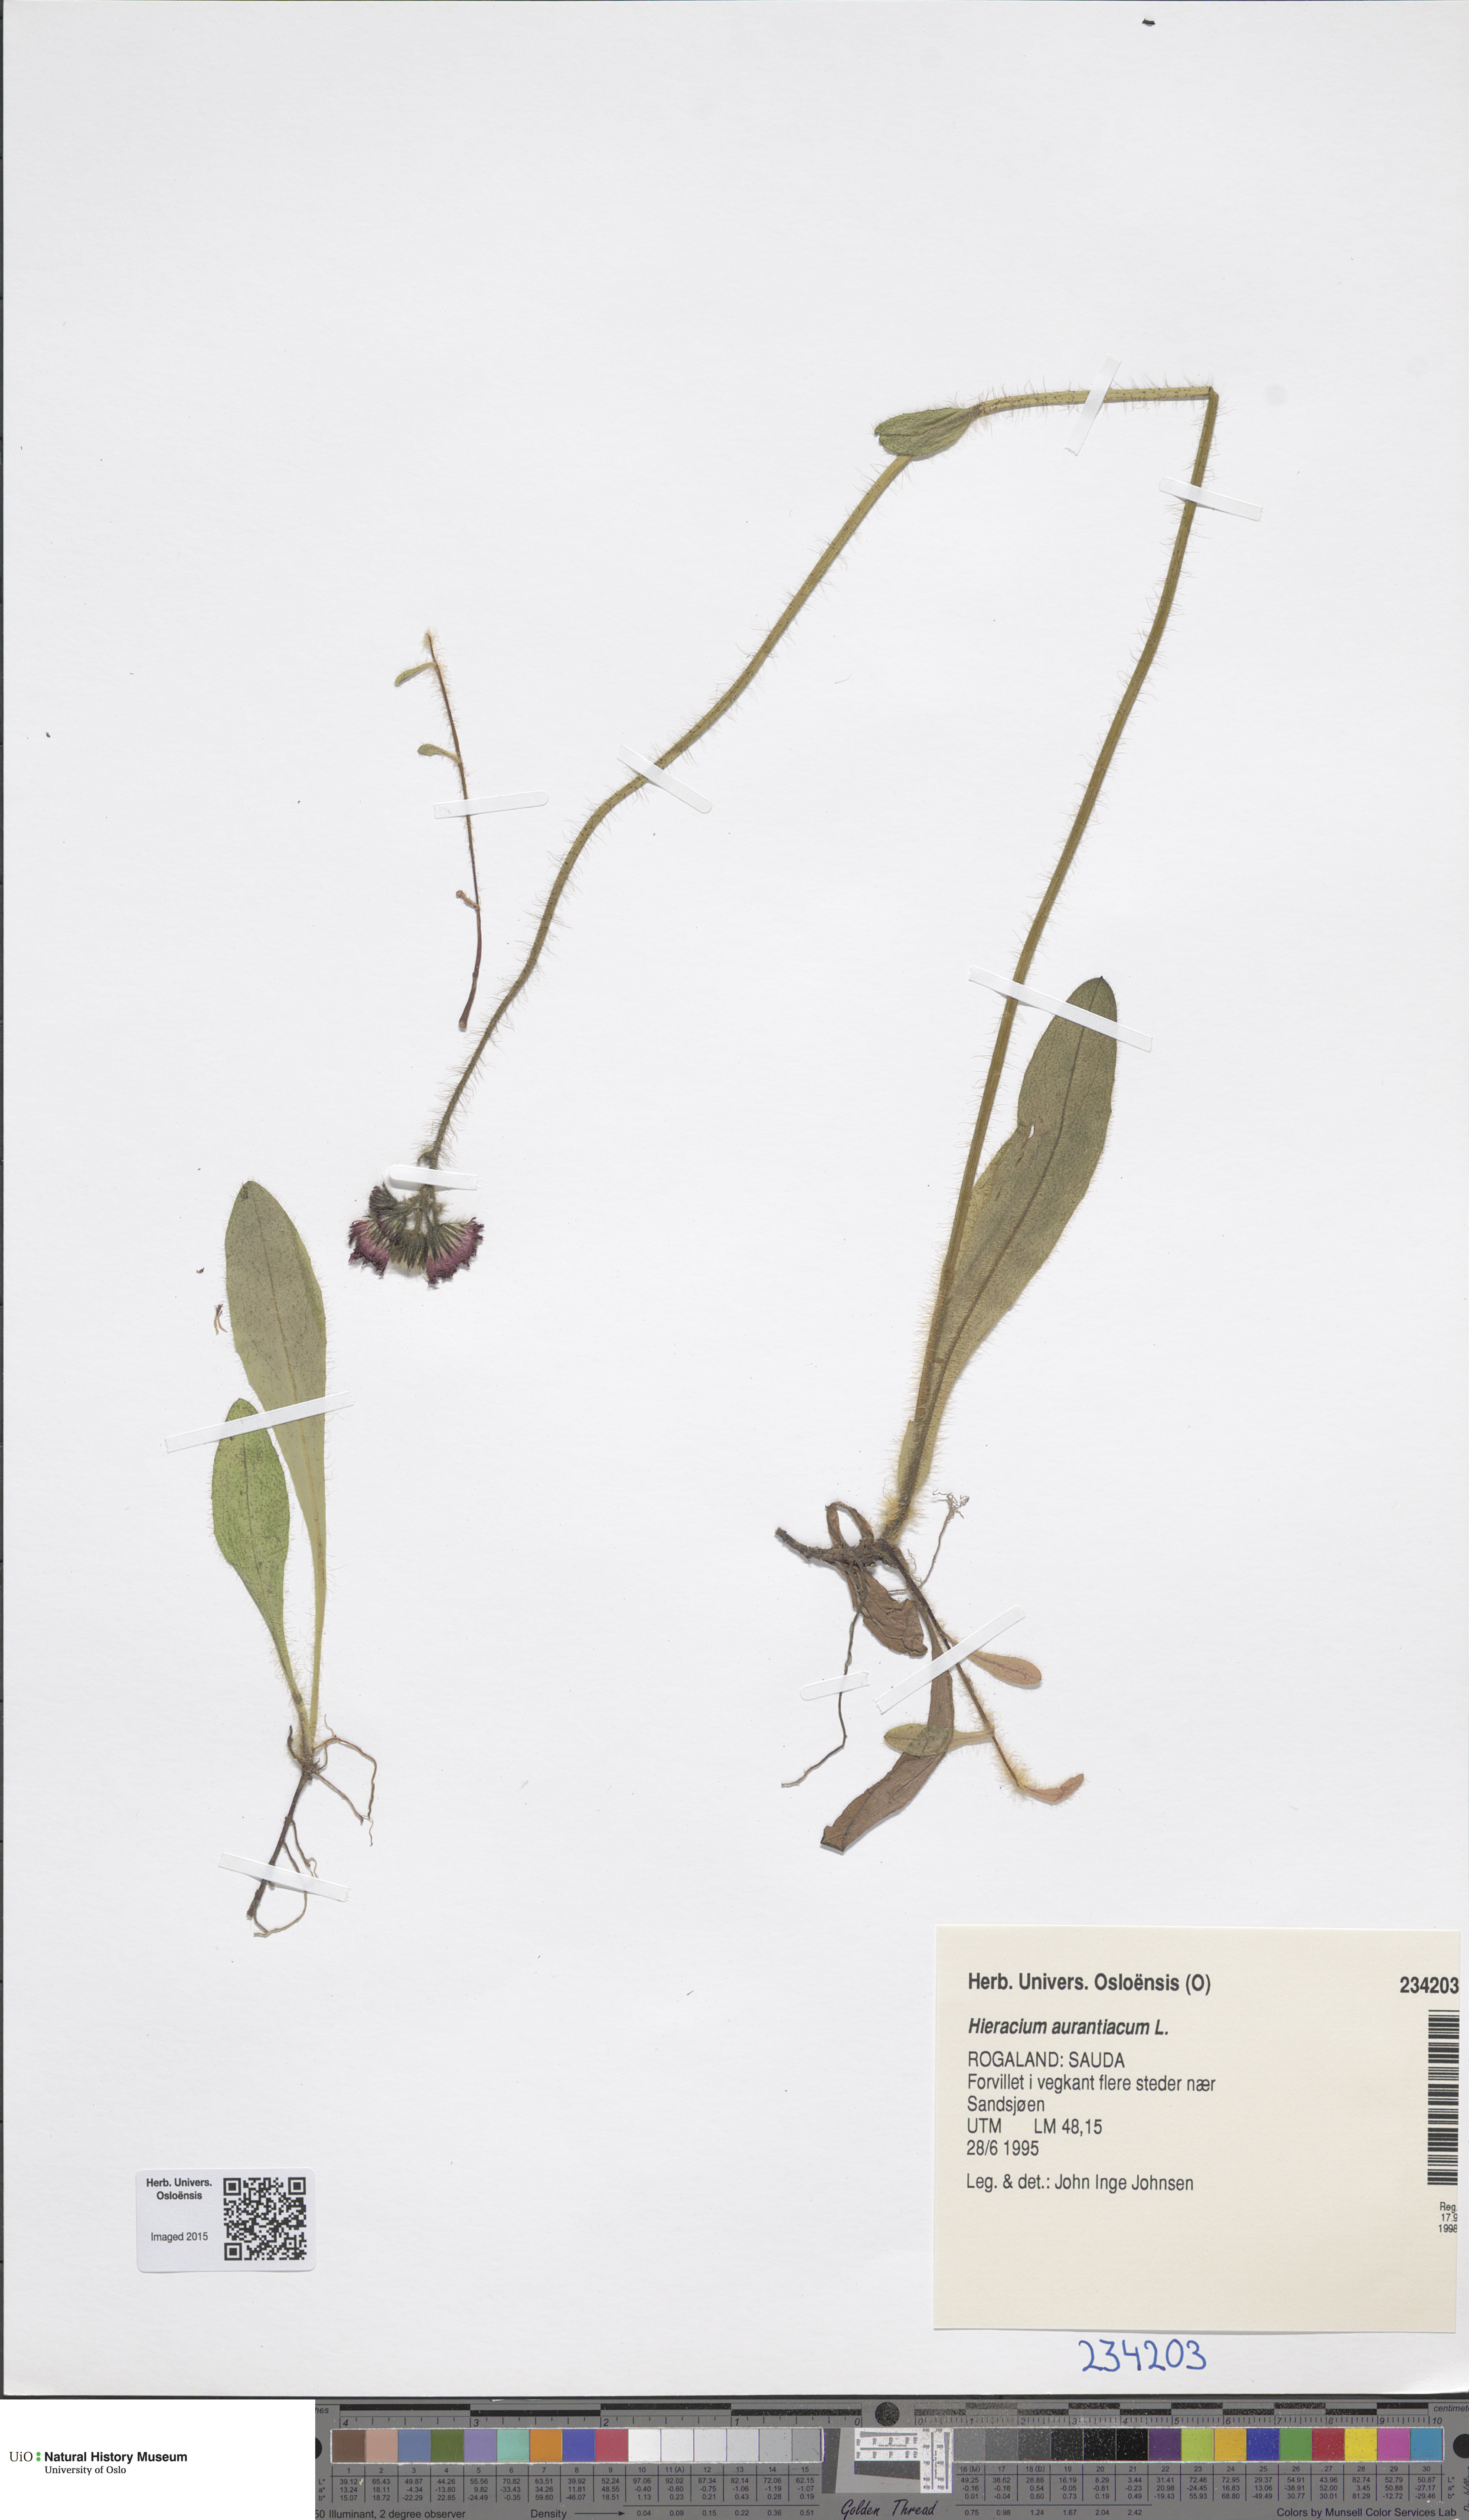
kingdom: Plantae
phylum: Tracheophyta
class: Magnoliopsida
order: Asterales
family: Asteraceae
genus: Pilosella
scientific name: Pilosella aurantiaca
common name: Fox-and-cubs
